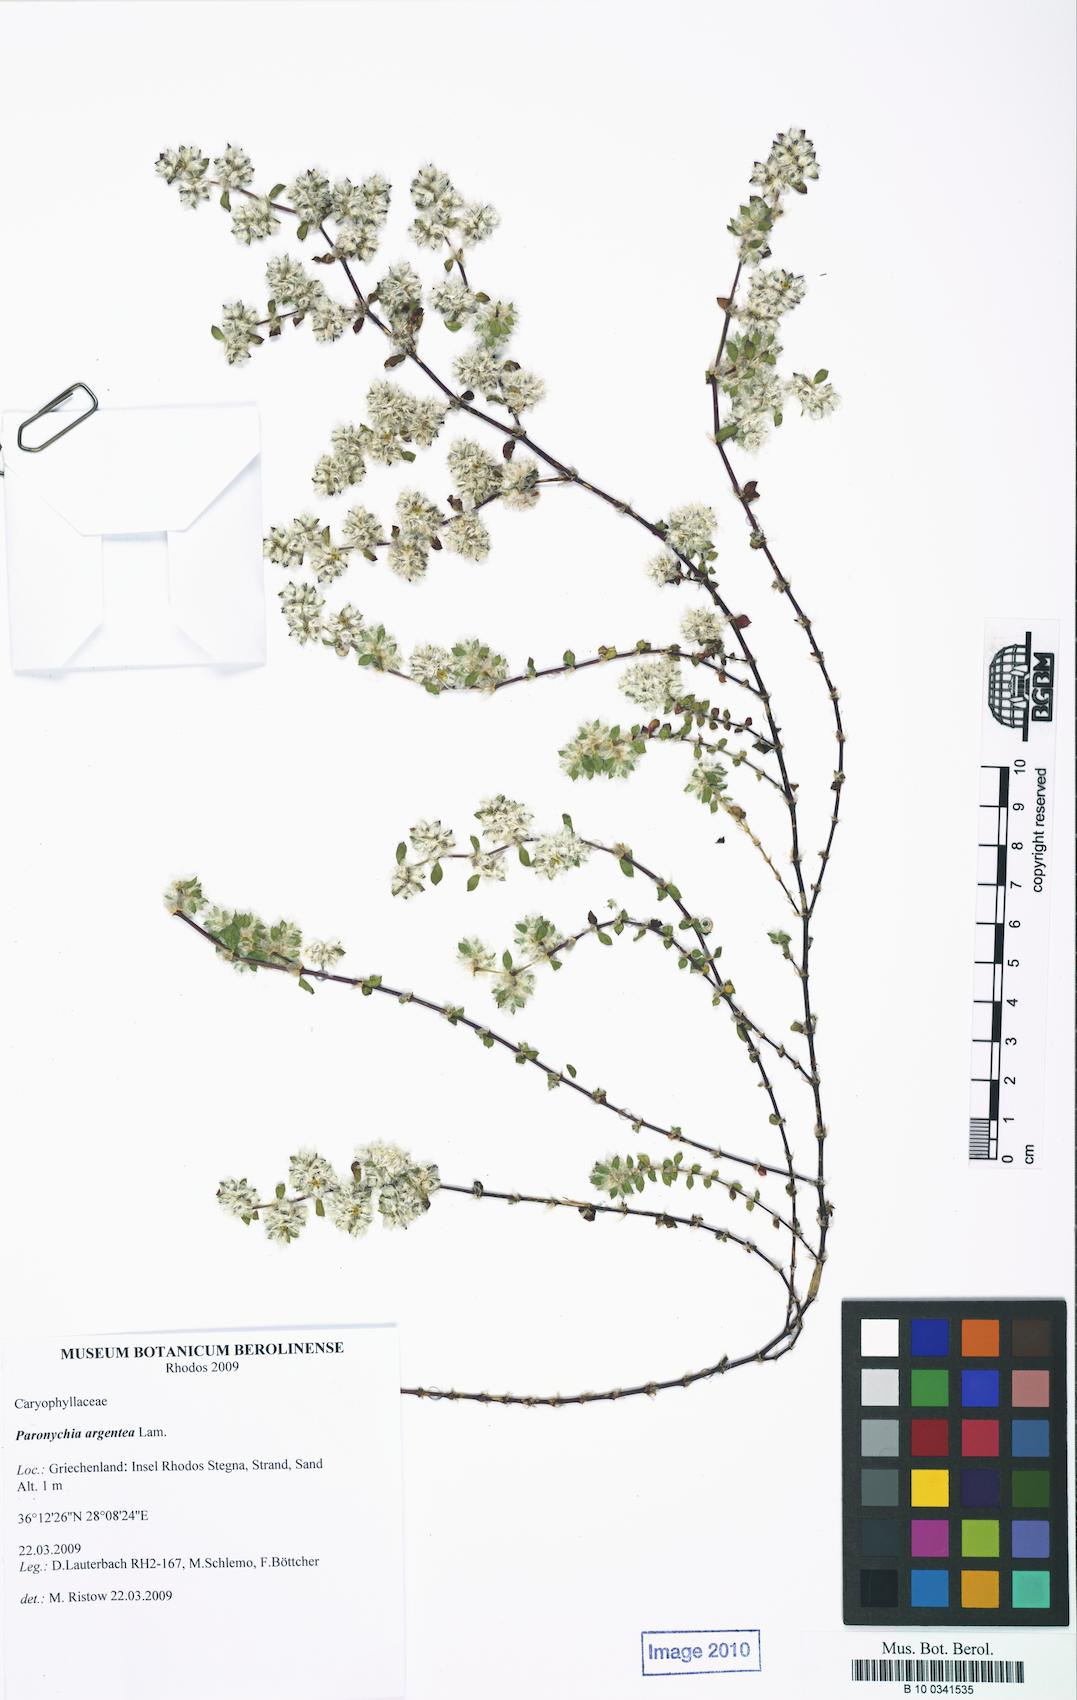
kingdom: Plantae
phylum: Tracheophyta
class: Magnoliopsida
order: Caryophyllales
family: Caryophyllaceae
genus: Paronychia
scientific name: Paronychia argentea
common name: Silver nailroot
